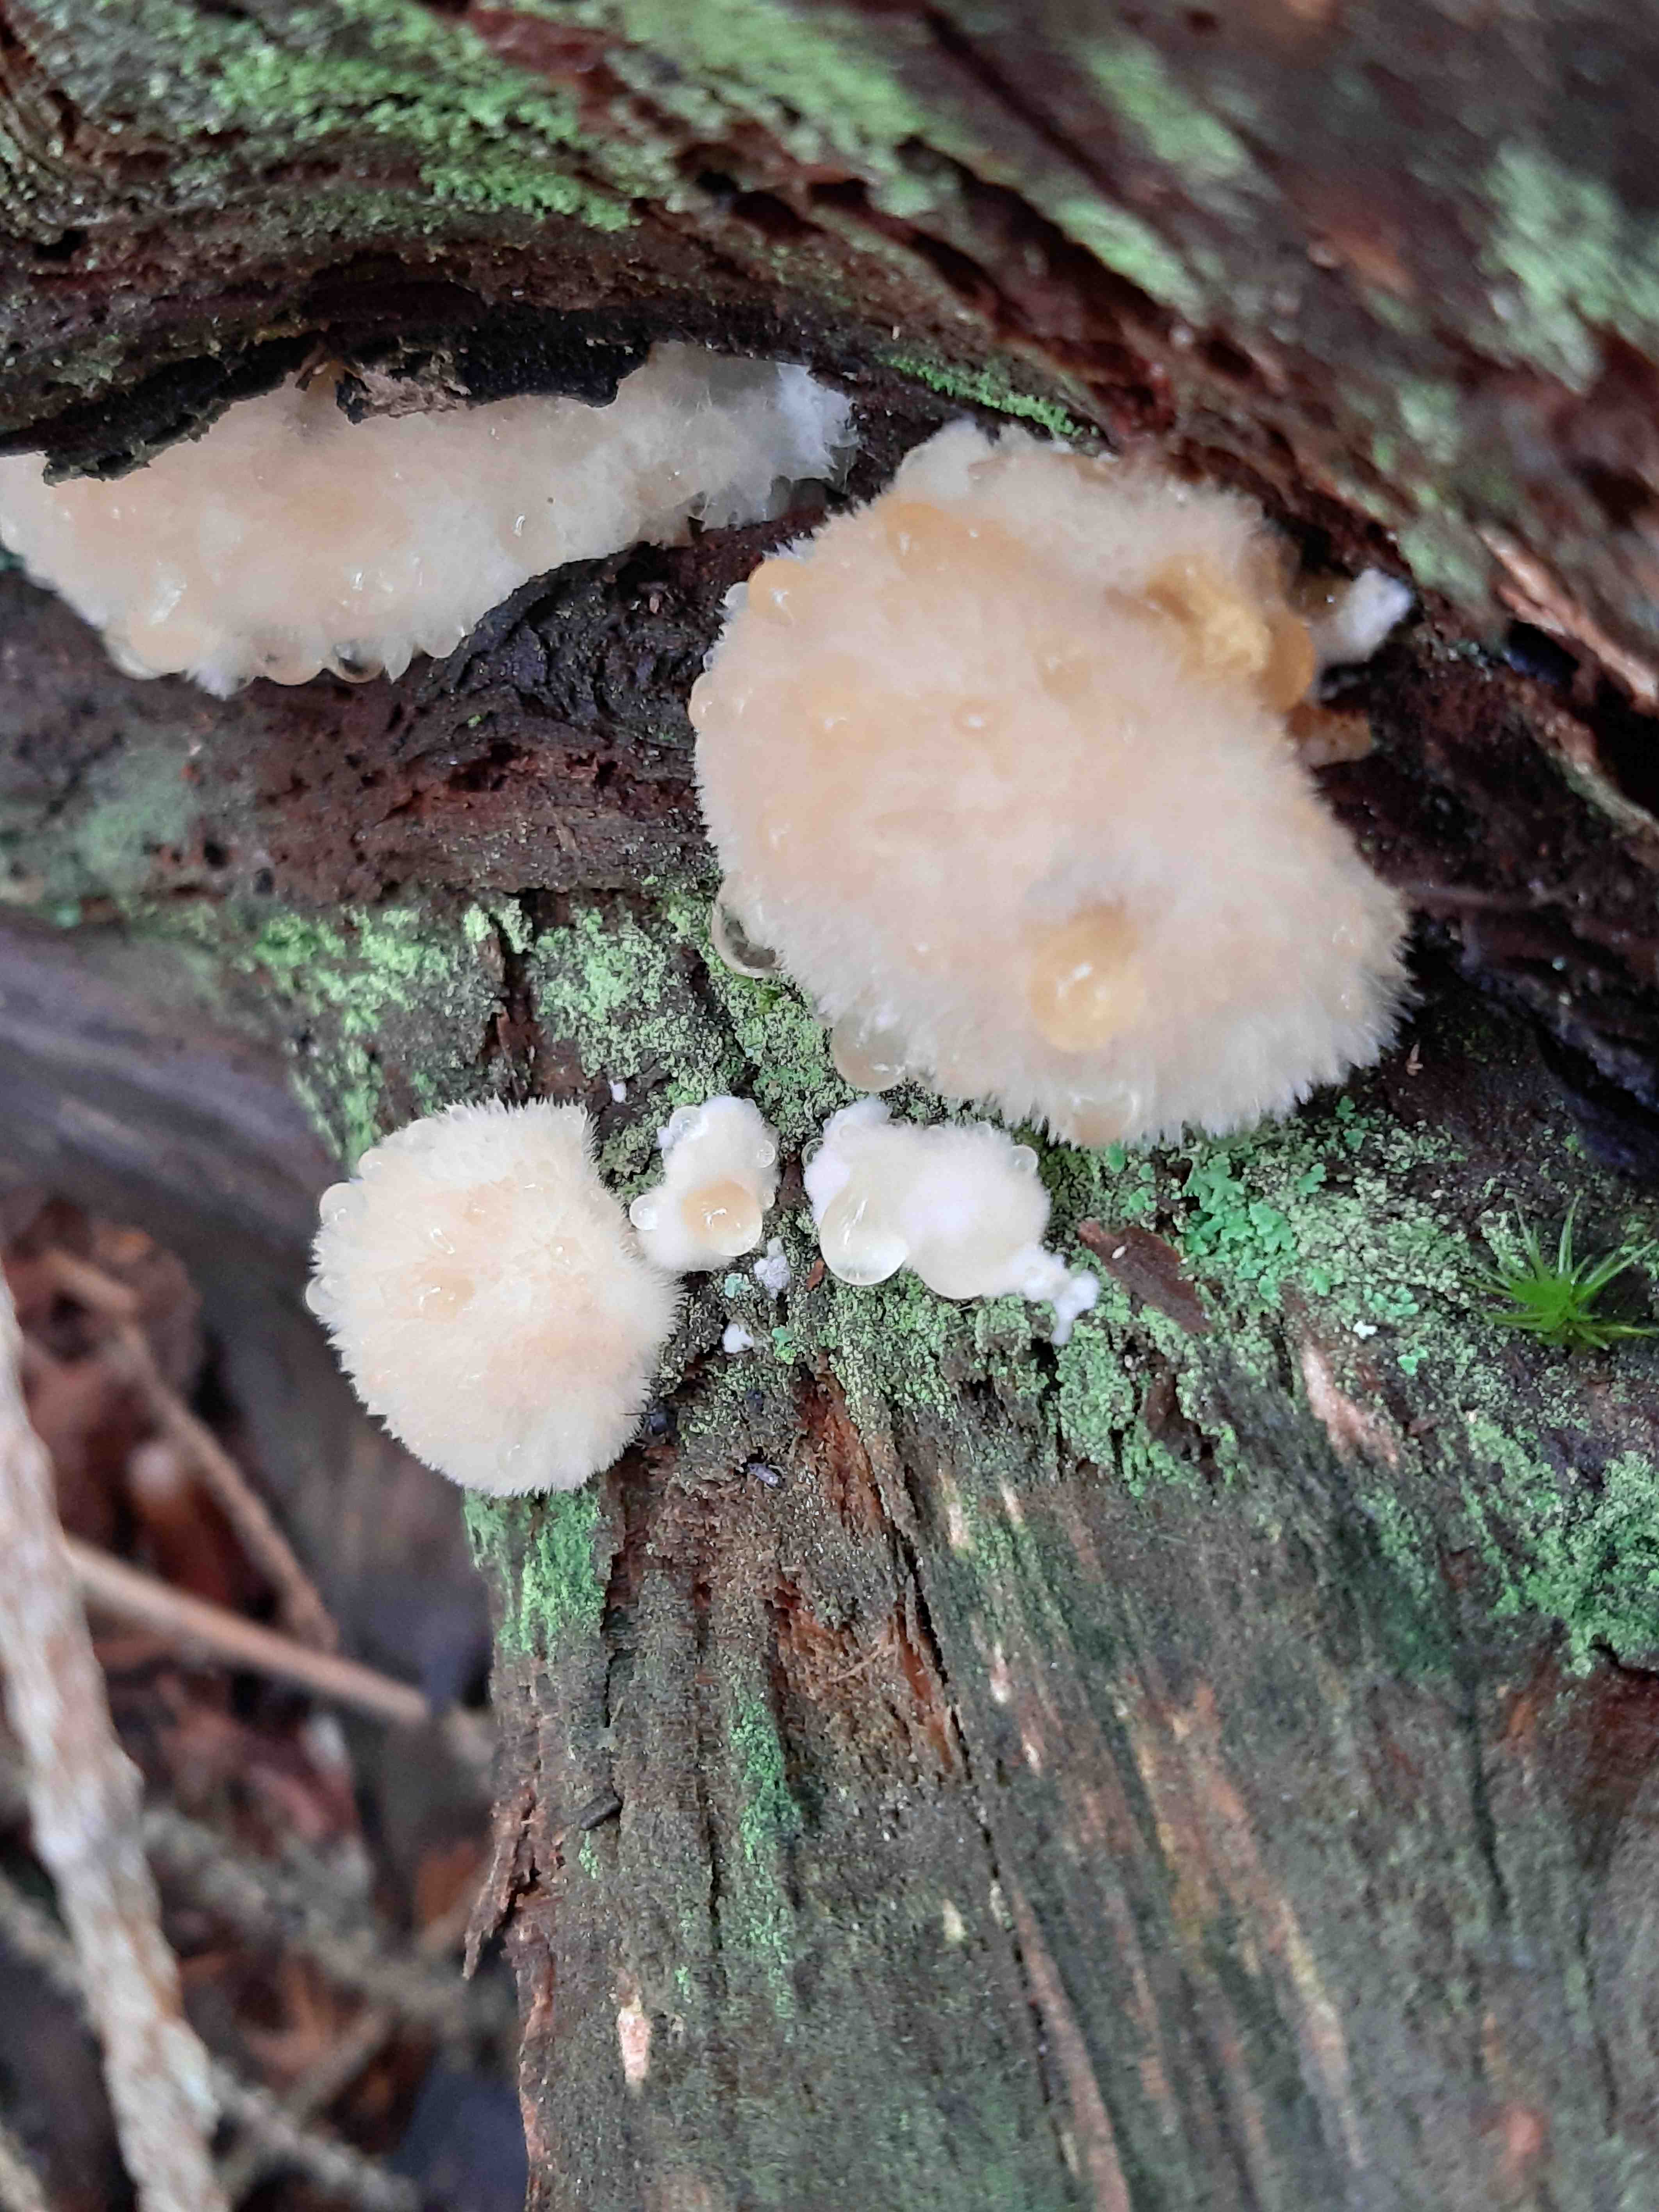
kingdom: Fungi
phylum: Basidiomycota
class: Agaricomycetes
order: Polyporales
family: Dacryobolaceae
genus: Postia
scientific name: Postia ptychogaster
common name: støvende kødporesvamp
